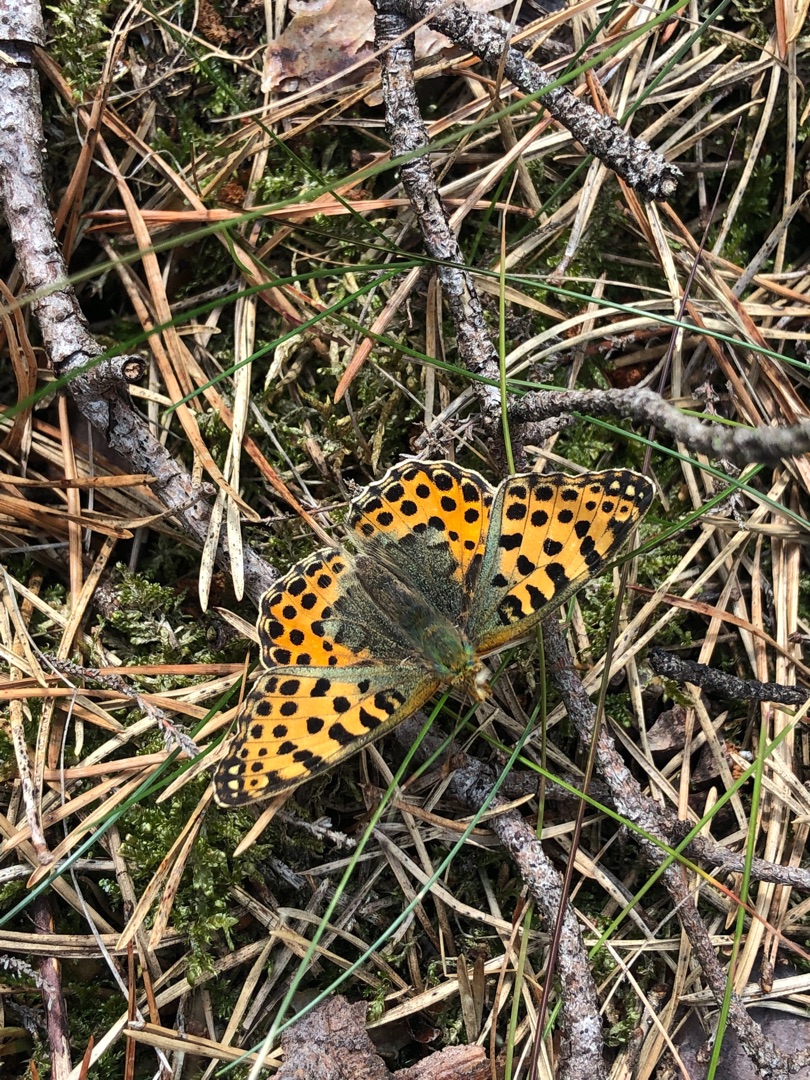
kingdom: Animalia
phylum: Arthropoda
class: Insecta
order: Lepidoptera
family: Nymphalidae
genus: Issoria
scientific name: Issoria lathonia
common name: Storplettet perlemorsommerfugl
